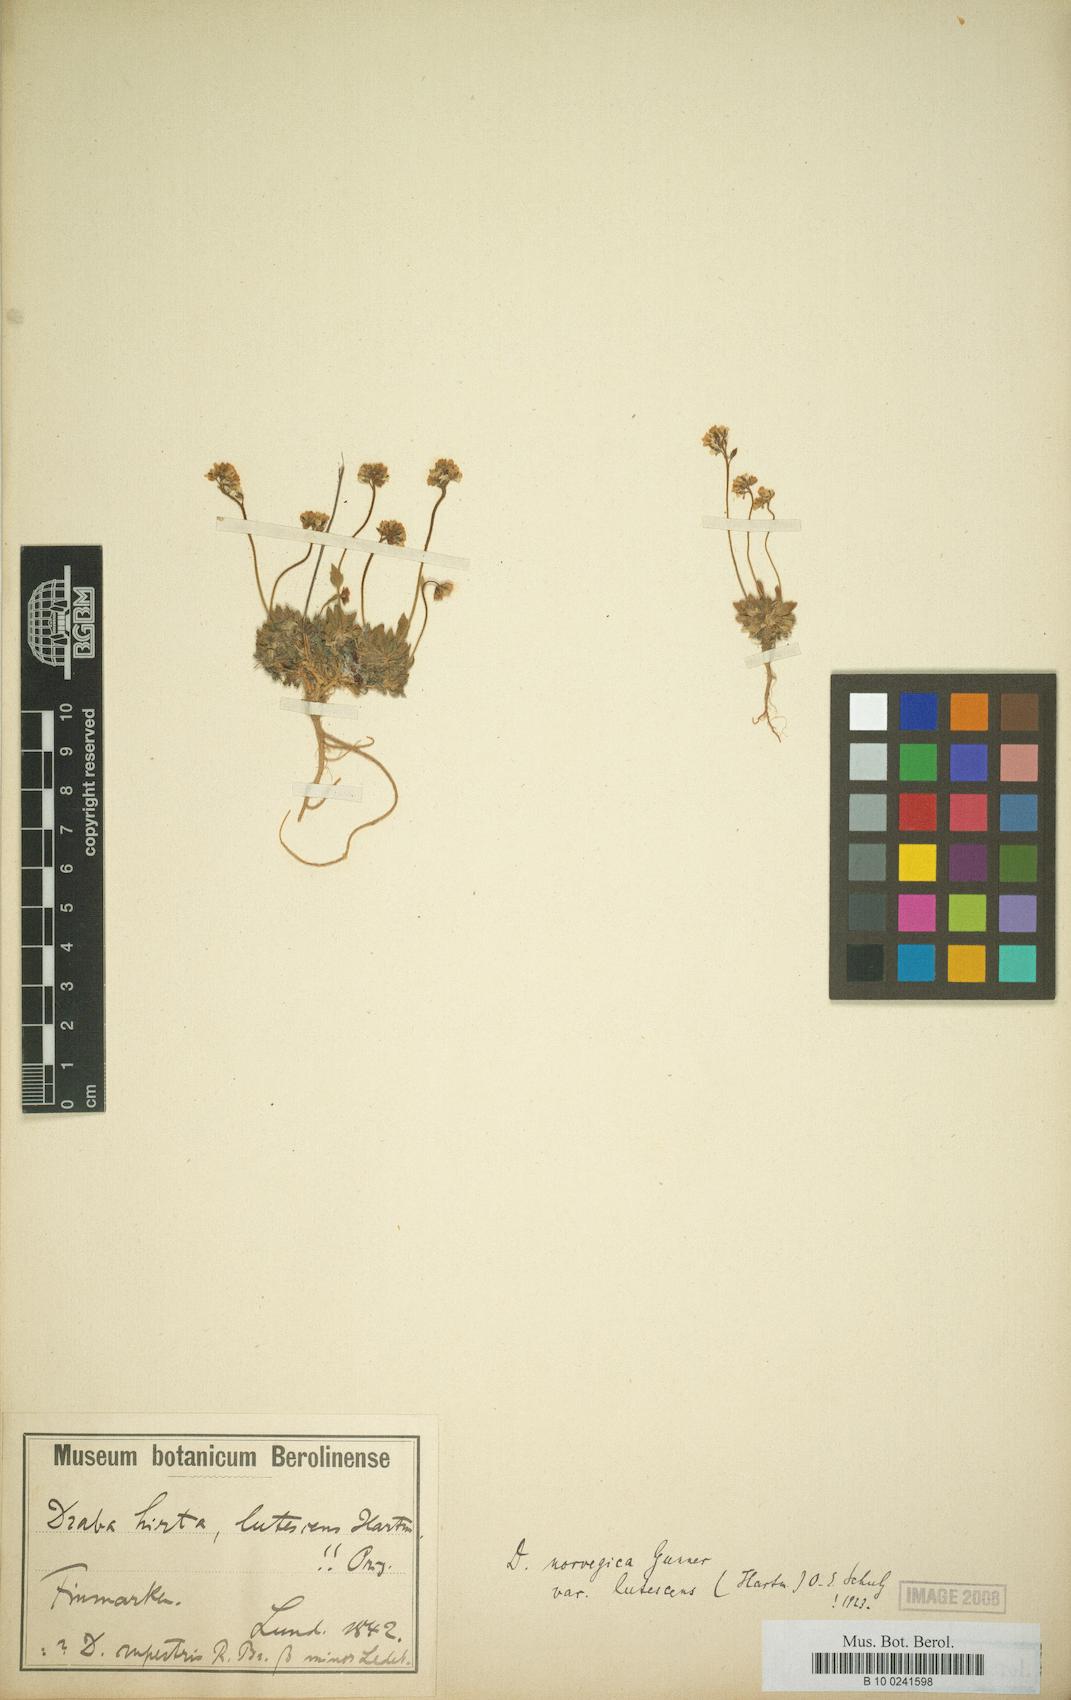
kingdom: Plantae
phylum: Tracheophyta
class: Magnoliopsida
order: Brassicales
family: Brassicaceae
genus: Draba
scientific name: Draba norvegica
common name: Rock whitlowgrass
